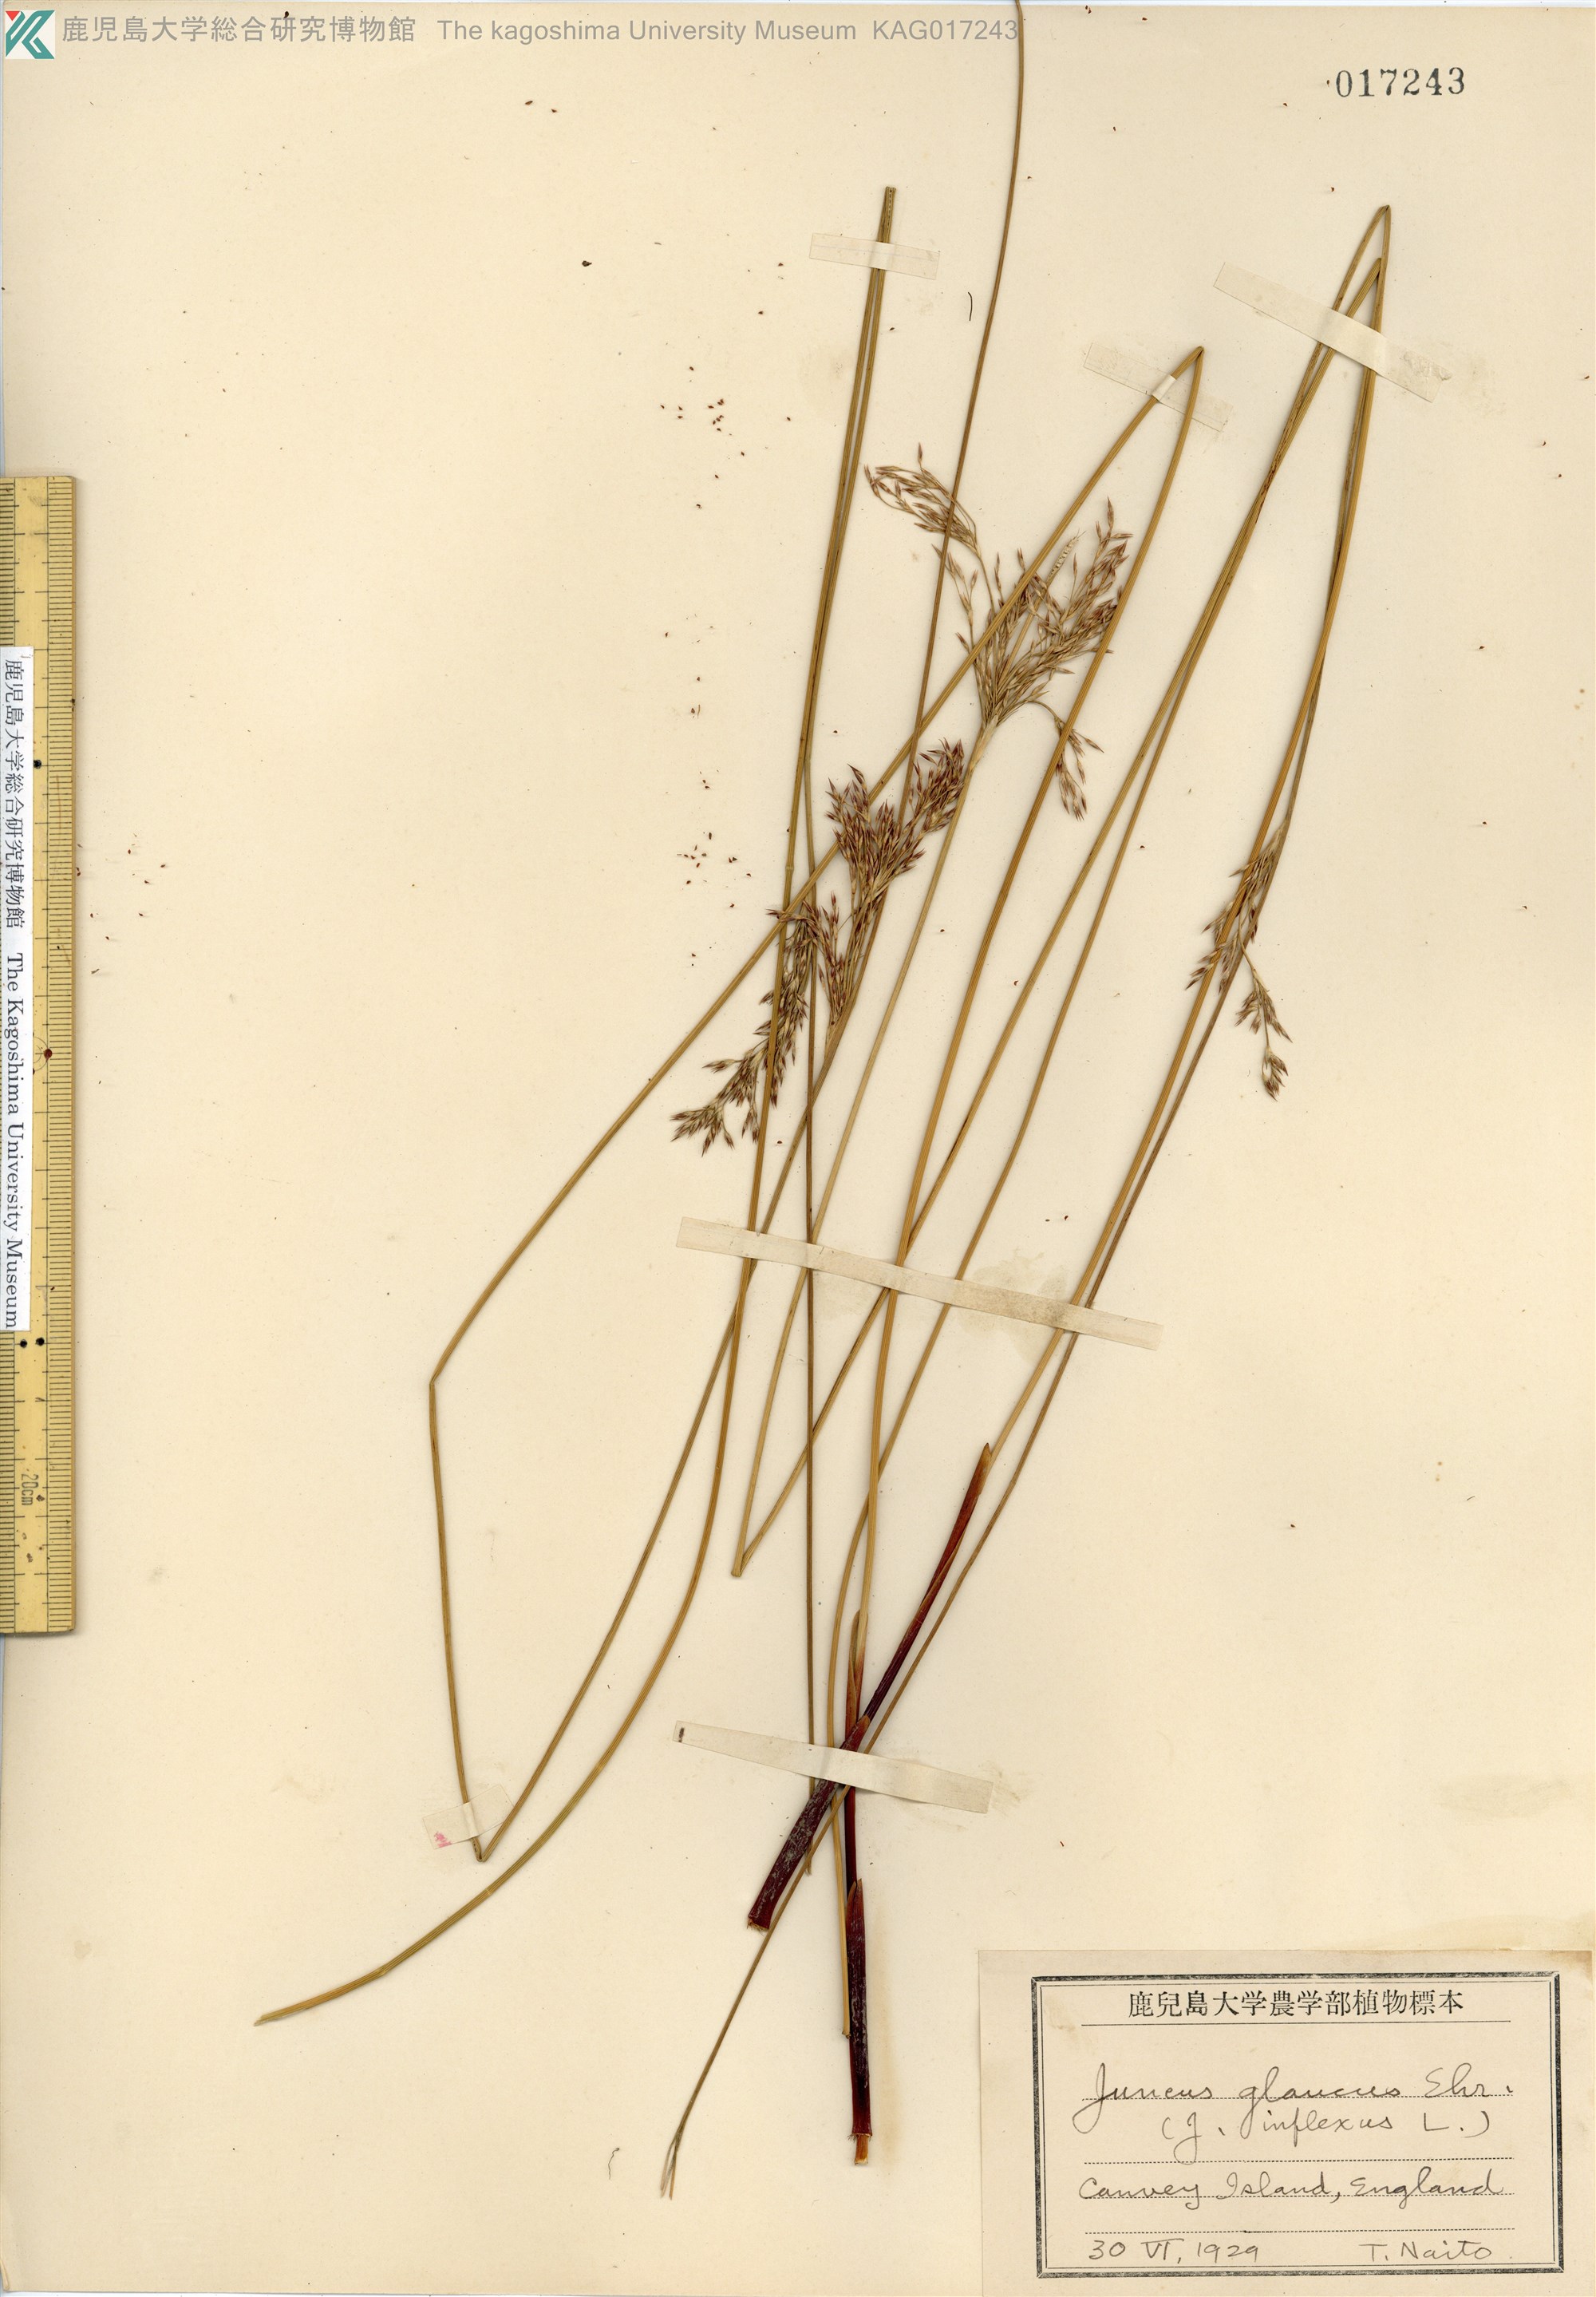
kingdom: Plantae
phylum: Tracheophyta
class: Liliopsida
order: Poales
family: Juncaceae
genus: Juncus
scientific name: Juncus glaucus
